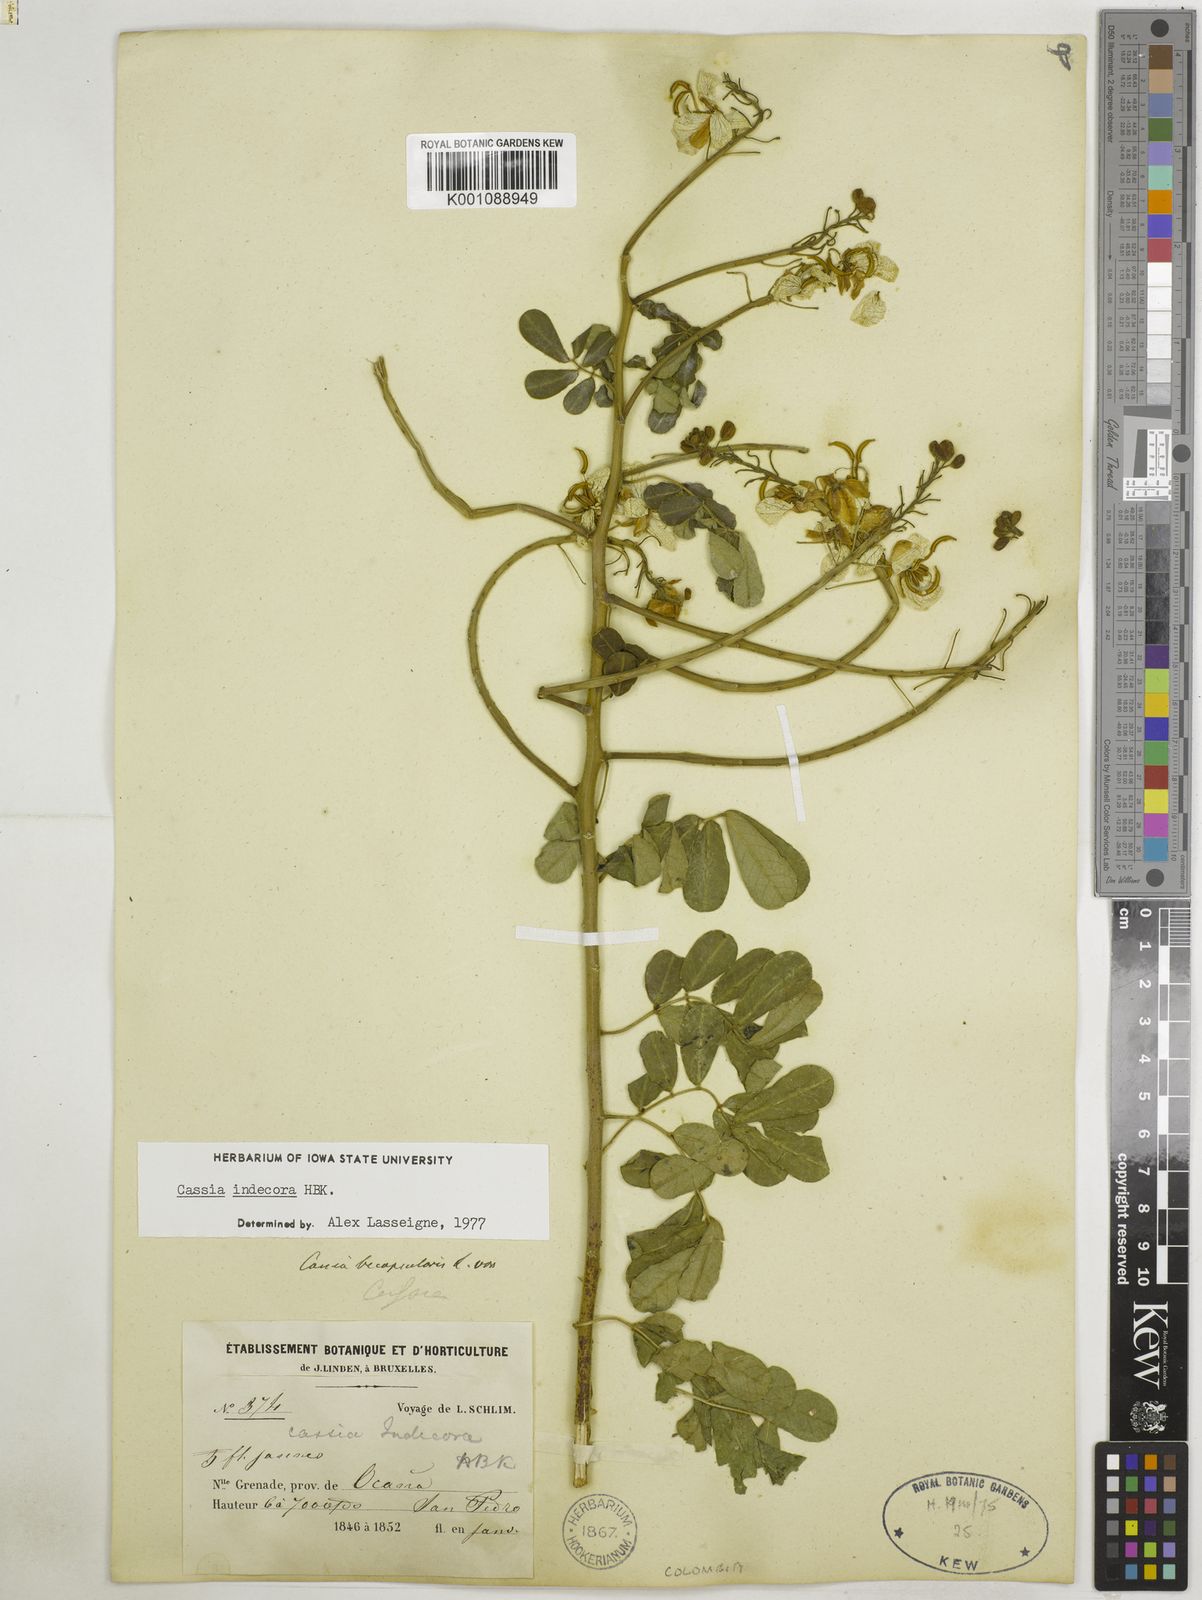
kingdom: Plantae
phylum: Tracheophyta
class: Magnoliopsida
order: Fabales
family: Fabaceae
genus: Senna
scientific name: Senna pendula
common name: Easter cassia
